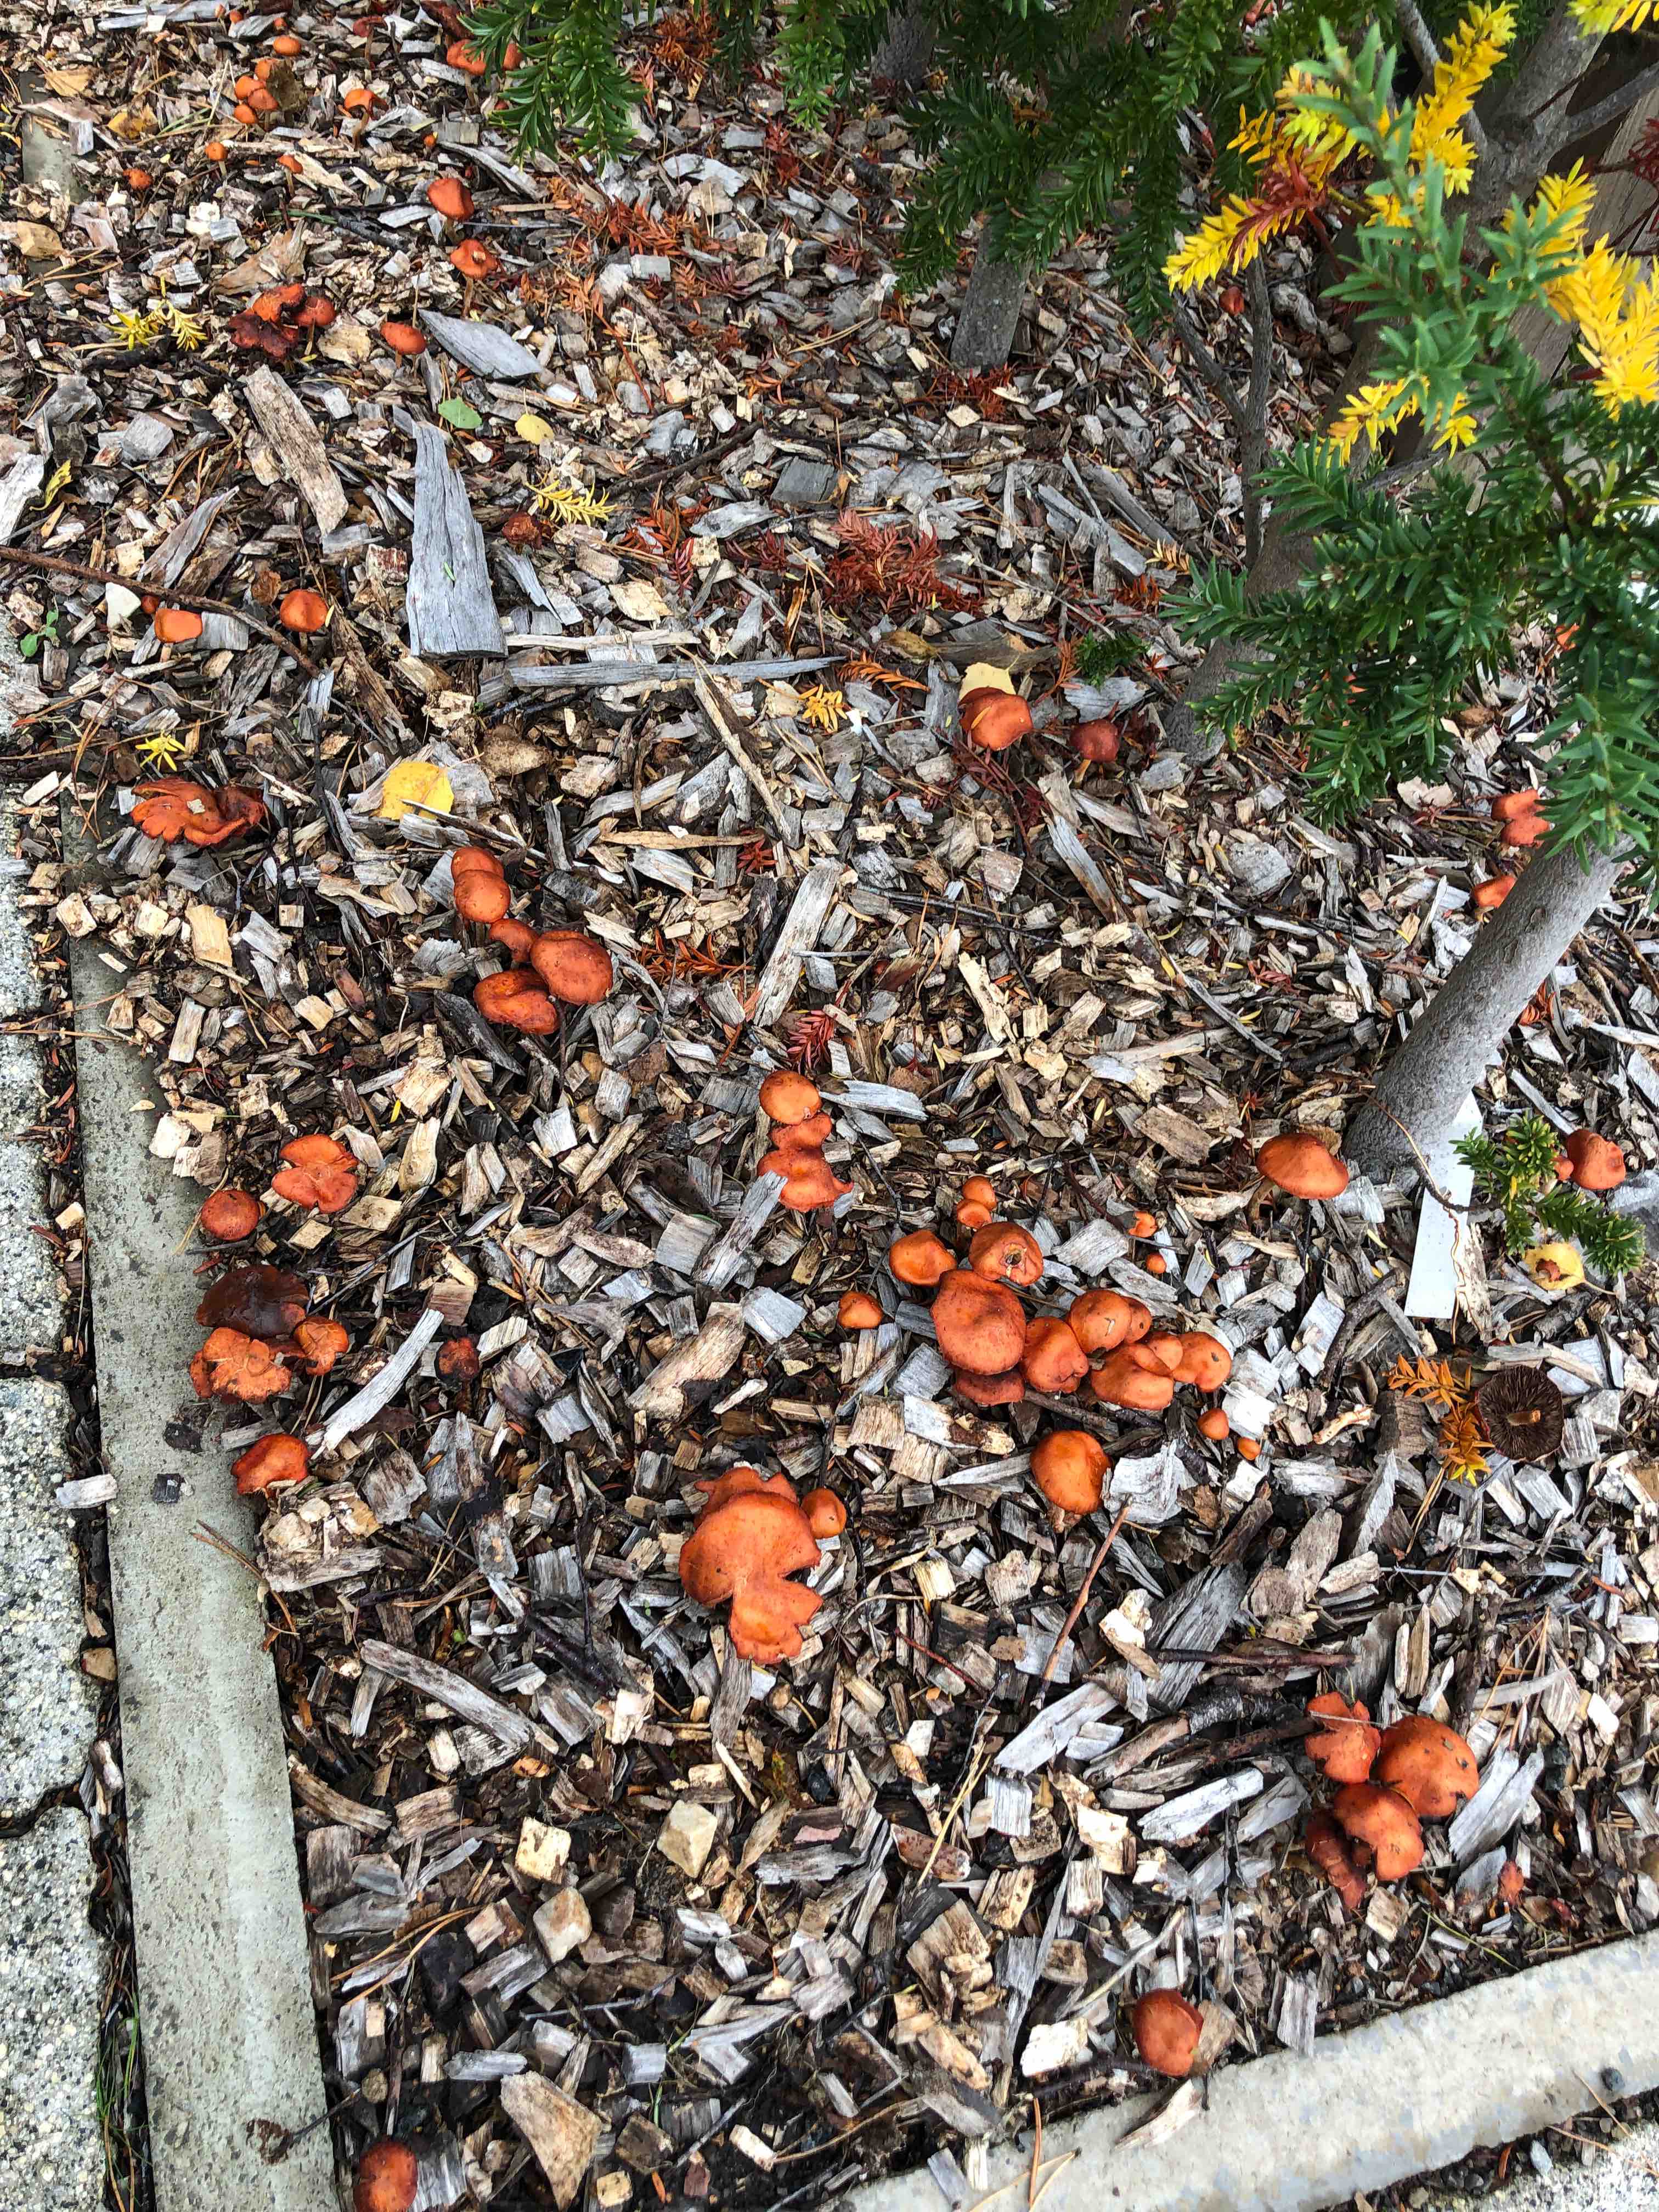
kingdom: Fungi
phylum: Basidiomycota
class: Agaricomycetes
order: Agaricales
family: Strophariaceae
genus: Leratiomyces
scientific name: Leratiomyces ceres
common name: orange bredblad
